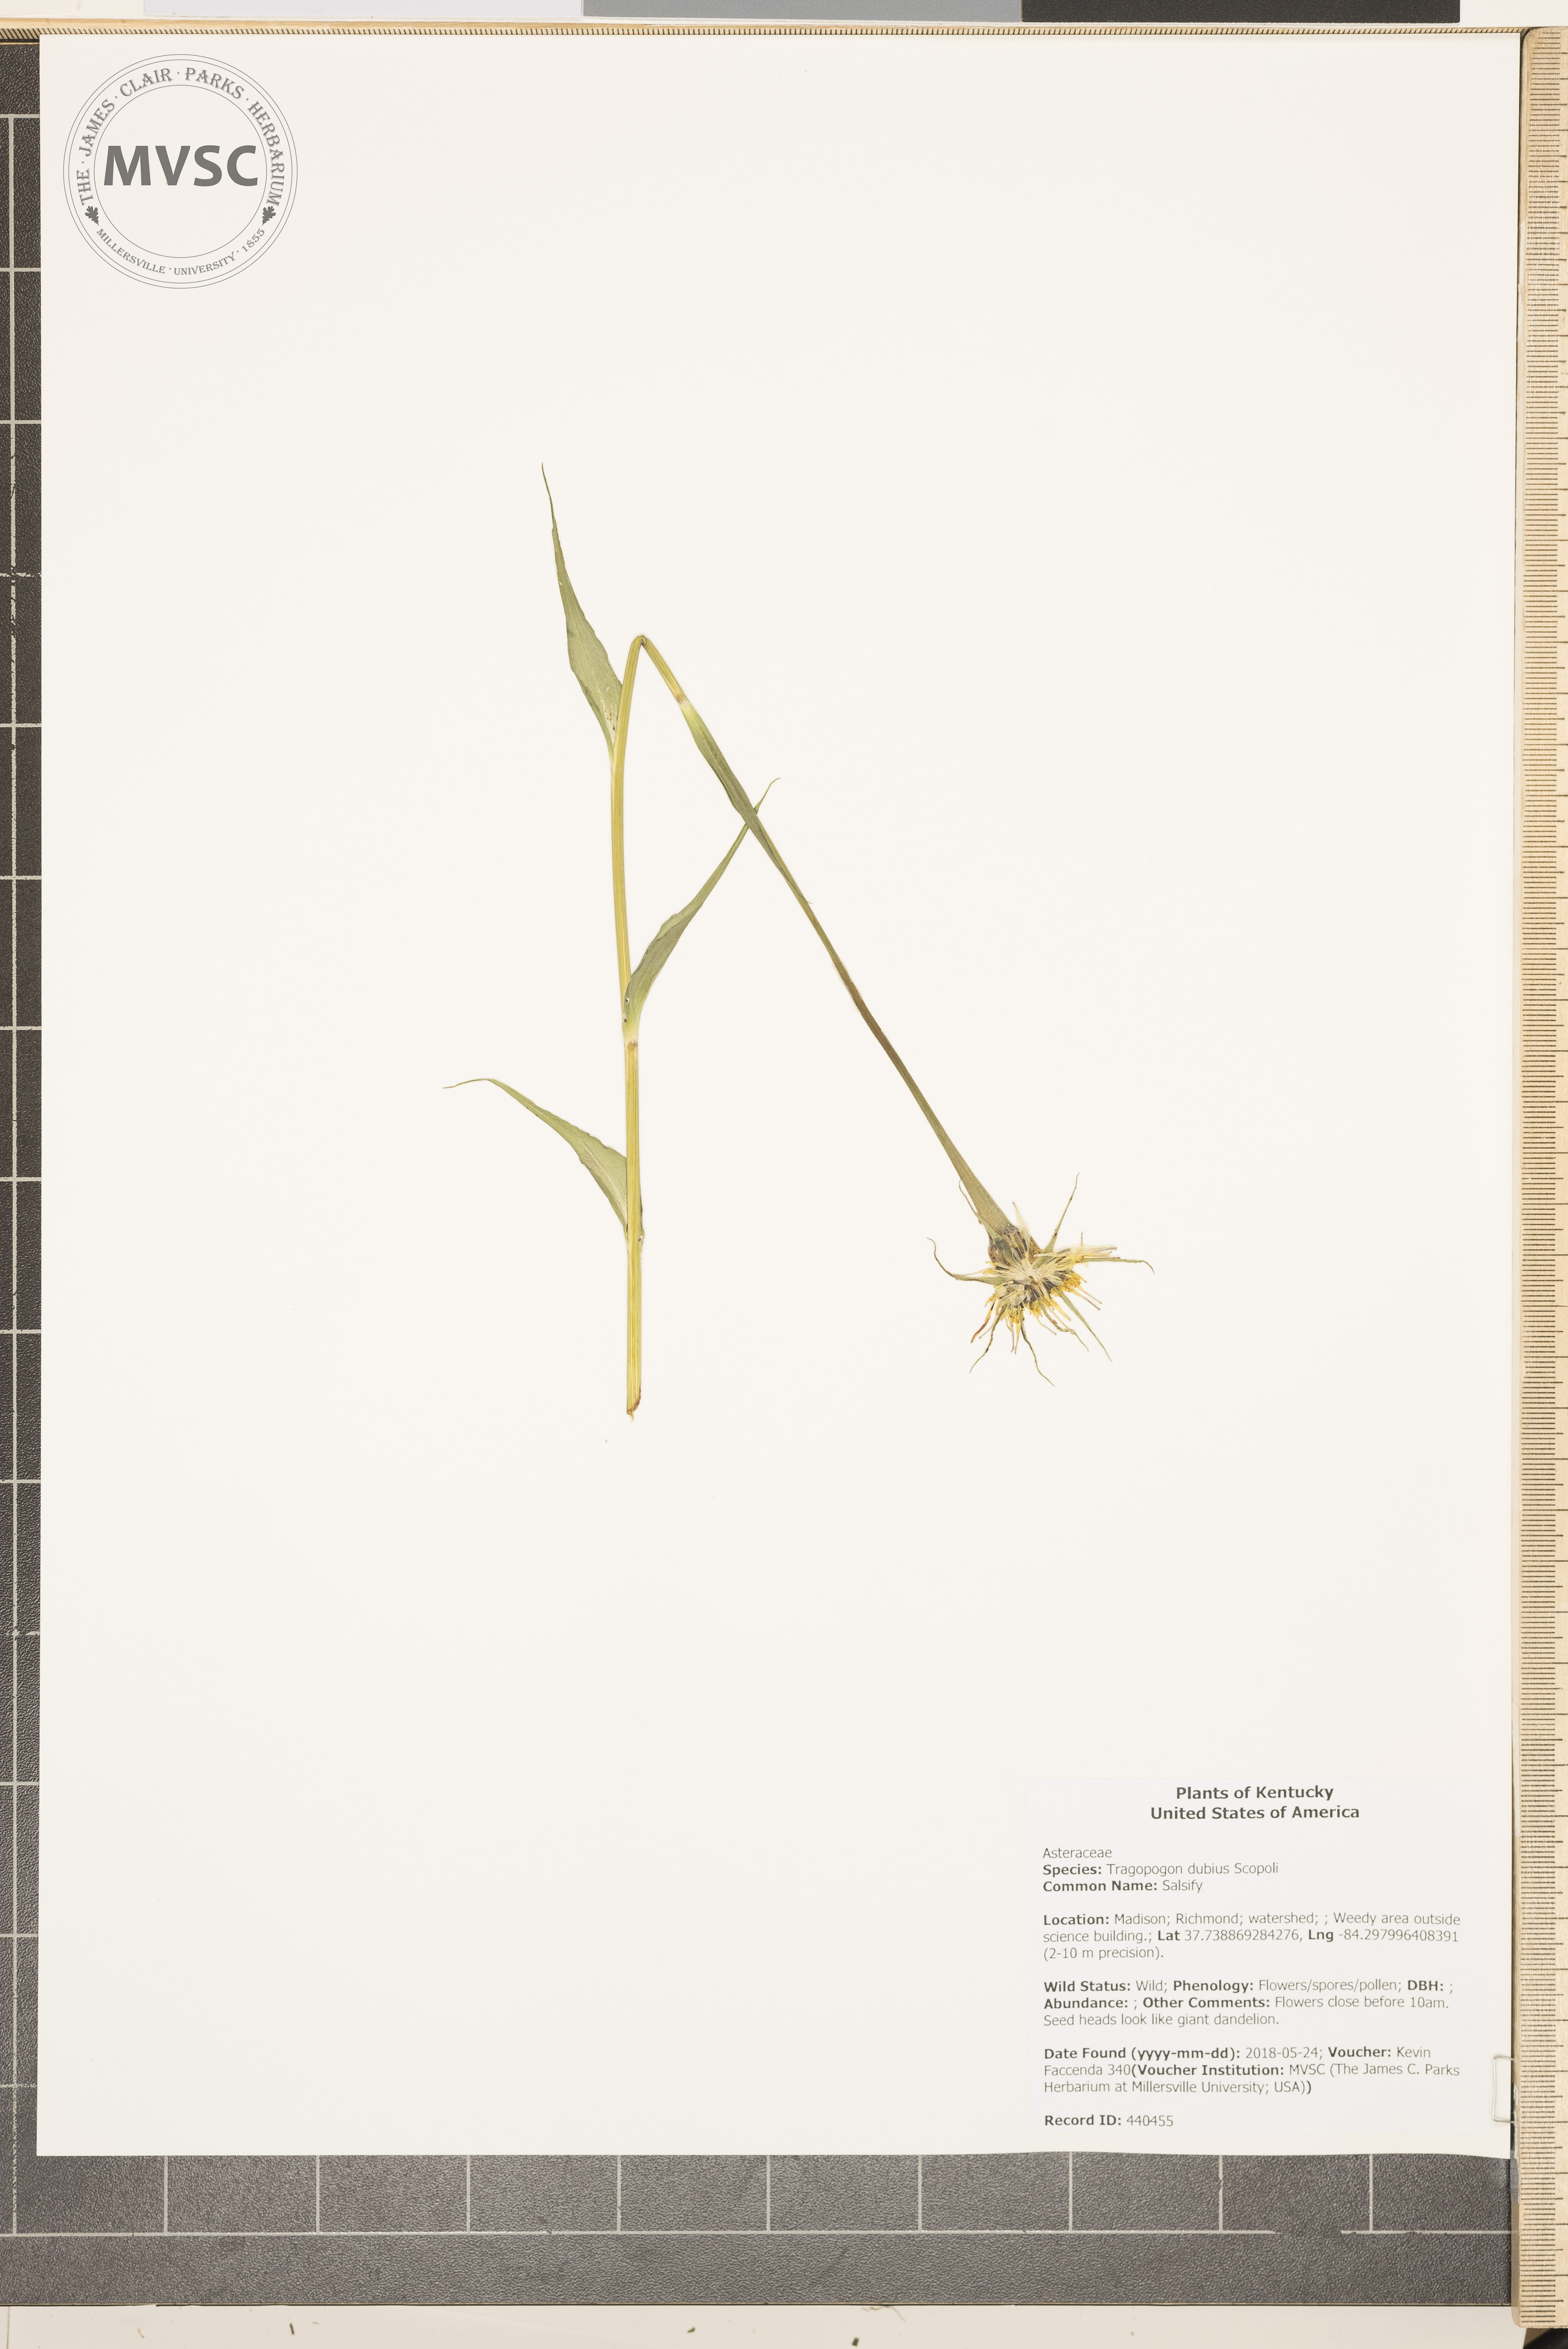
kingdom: Plantae
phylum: Tracheophyta
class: Magnoliopsida
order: Asterales
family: Asteraceae
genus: Tragopogon
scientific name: Tragopogon dubius
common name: Salsify
